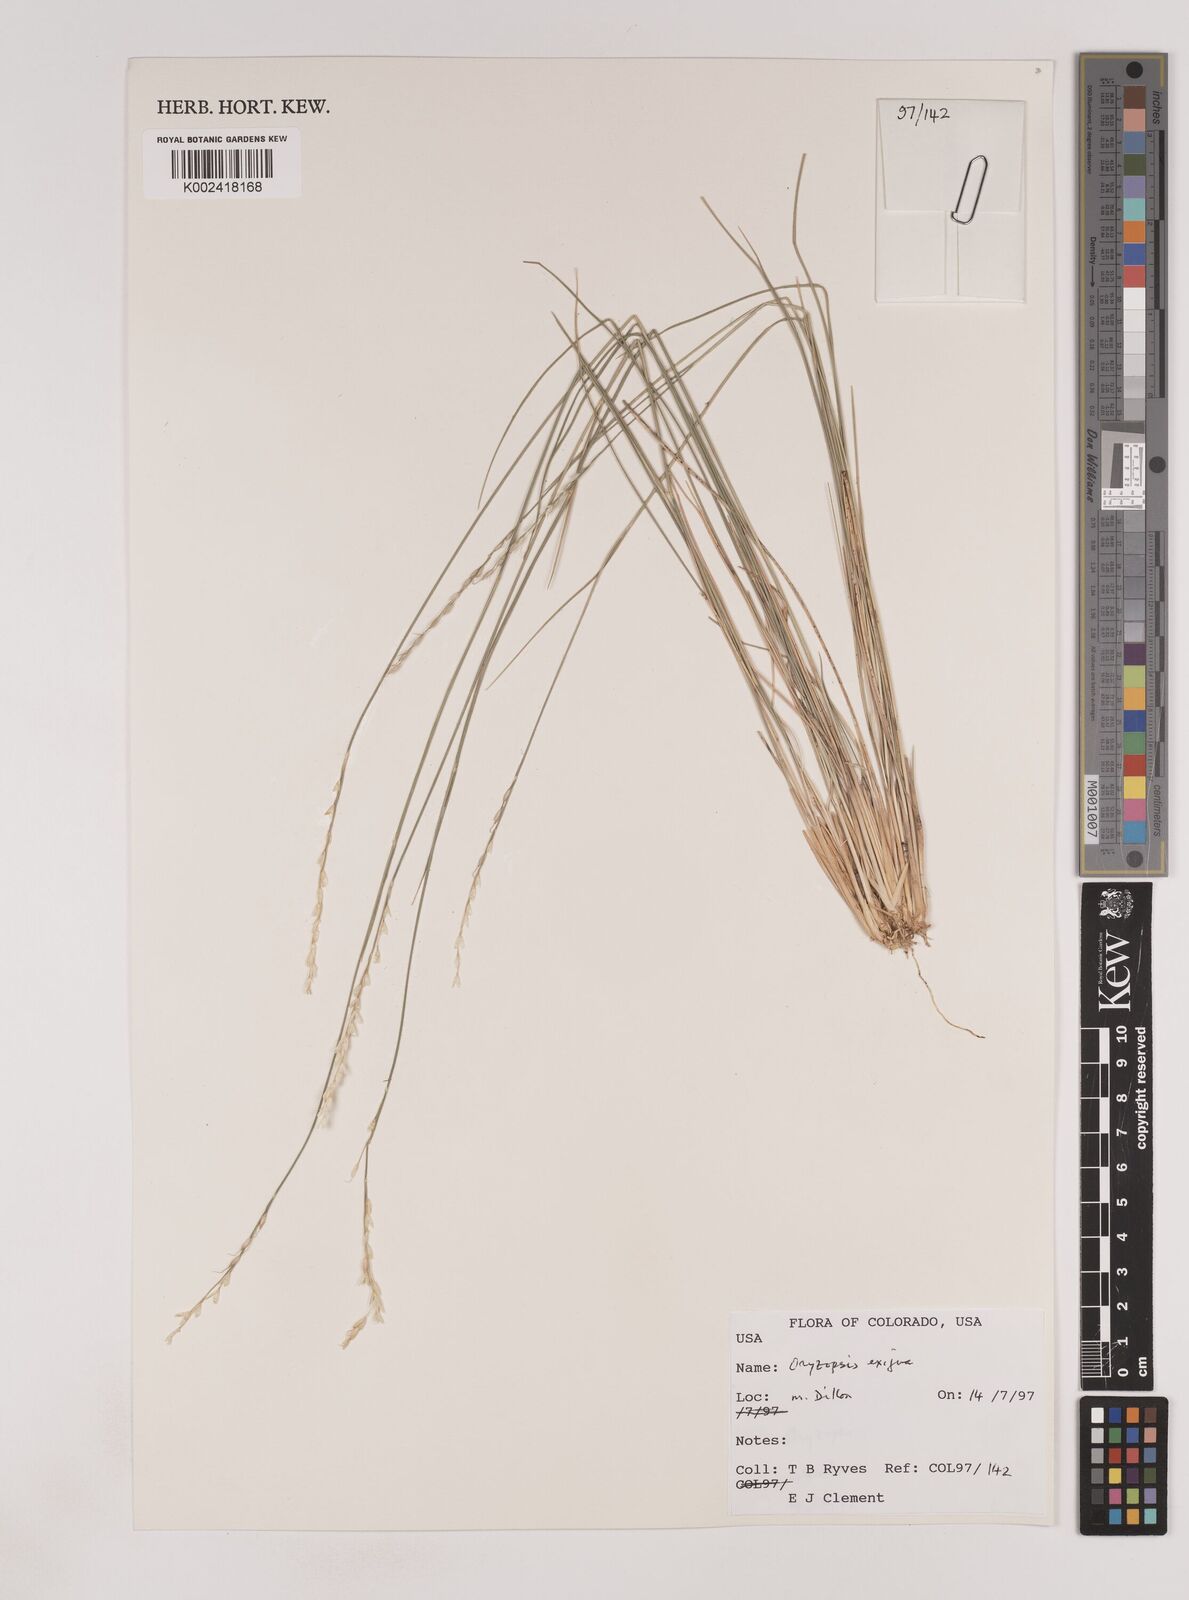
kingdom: Plantae
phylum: Tracheophyta
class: Liliopsida
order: Poales
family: Poaceae
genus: Piptatheropsis
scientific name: Piptatheropsis exigua
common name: Little mountain ricegrass
